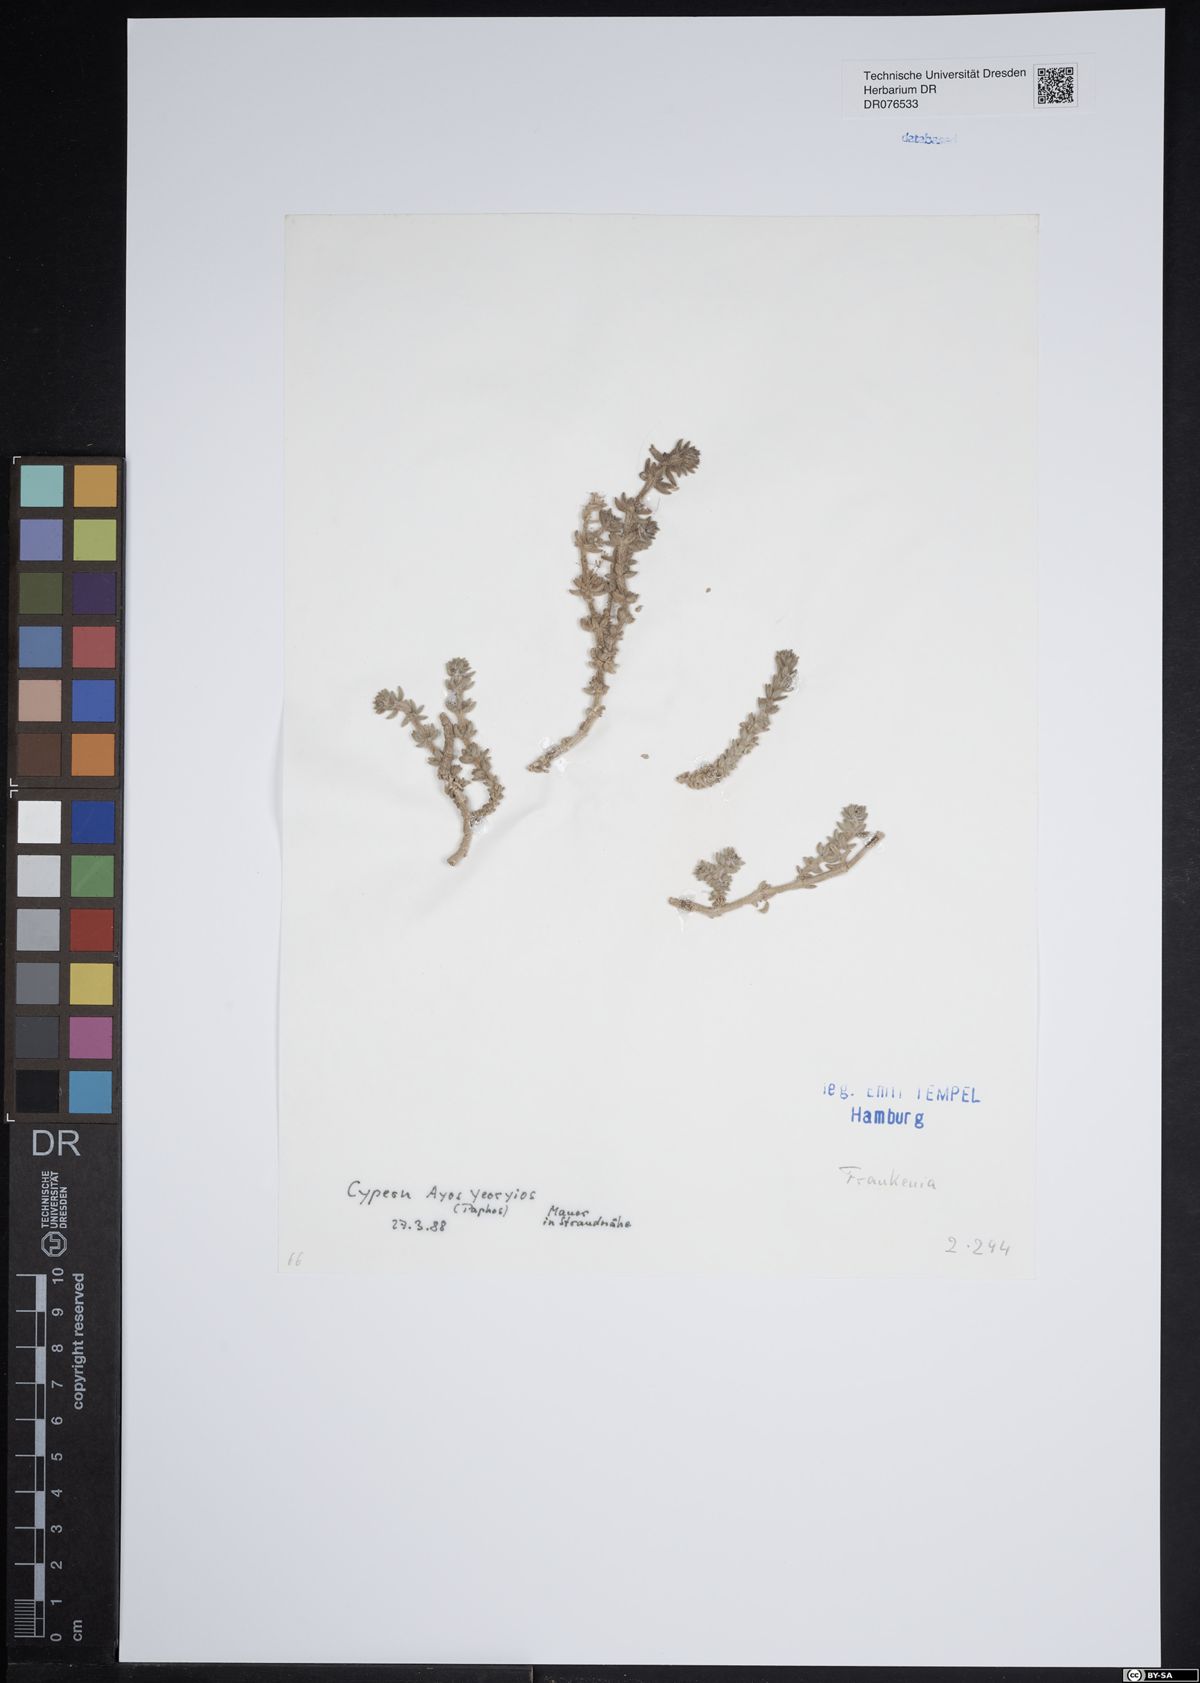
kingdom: Plantae
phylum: Tracheophyta
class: Magnoliopsida
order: Caryophyllales
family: Frankeniaceae
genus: Frankenia
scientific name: Frankenia
